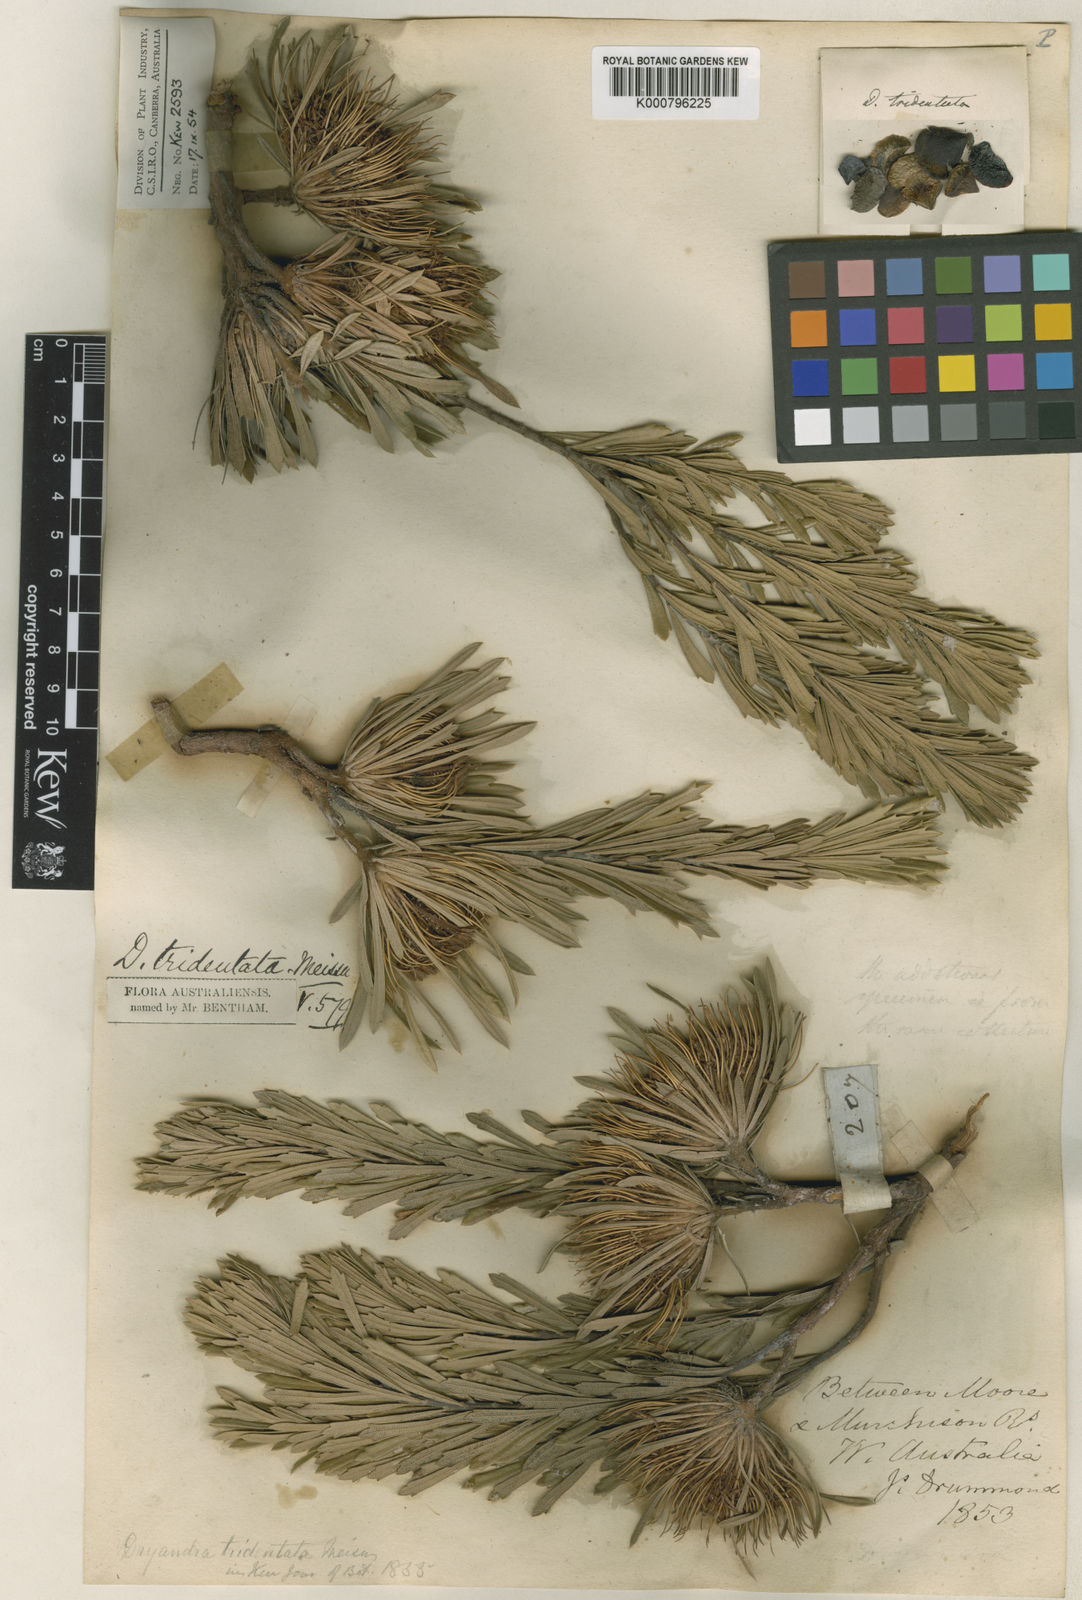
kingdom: Plantae
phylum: Tracheophyta
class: Magnoliopsida
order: Proteales
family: Proteaceae
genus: Banksia
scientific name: Banksia tridentata
